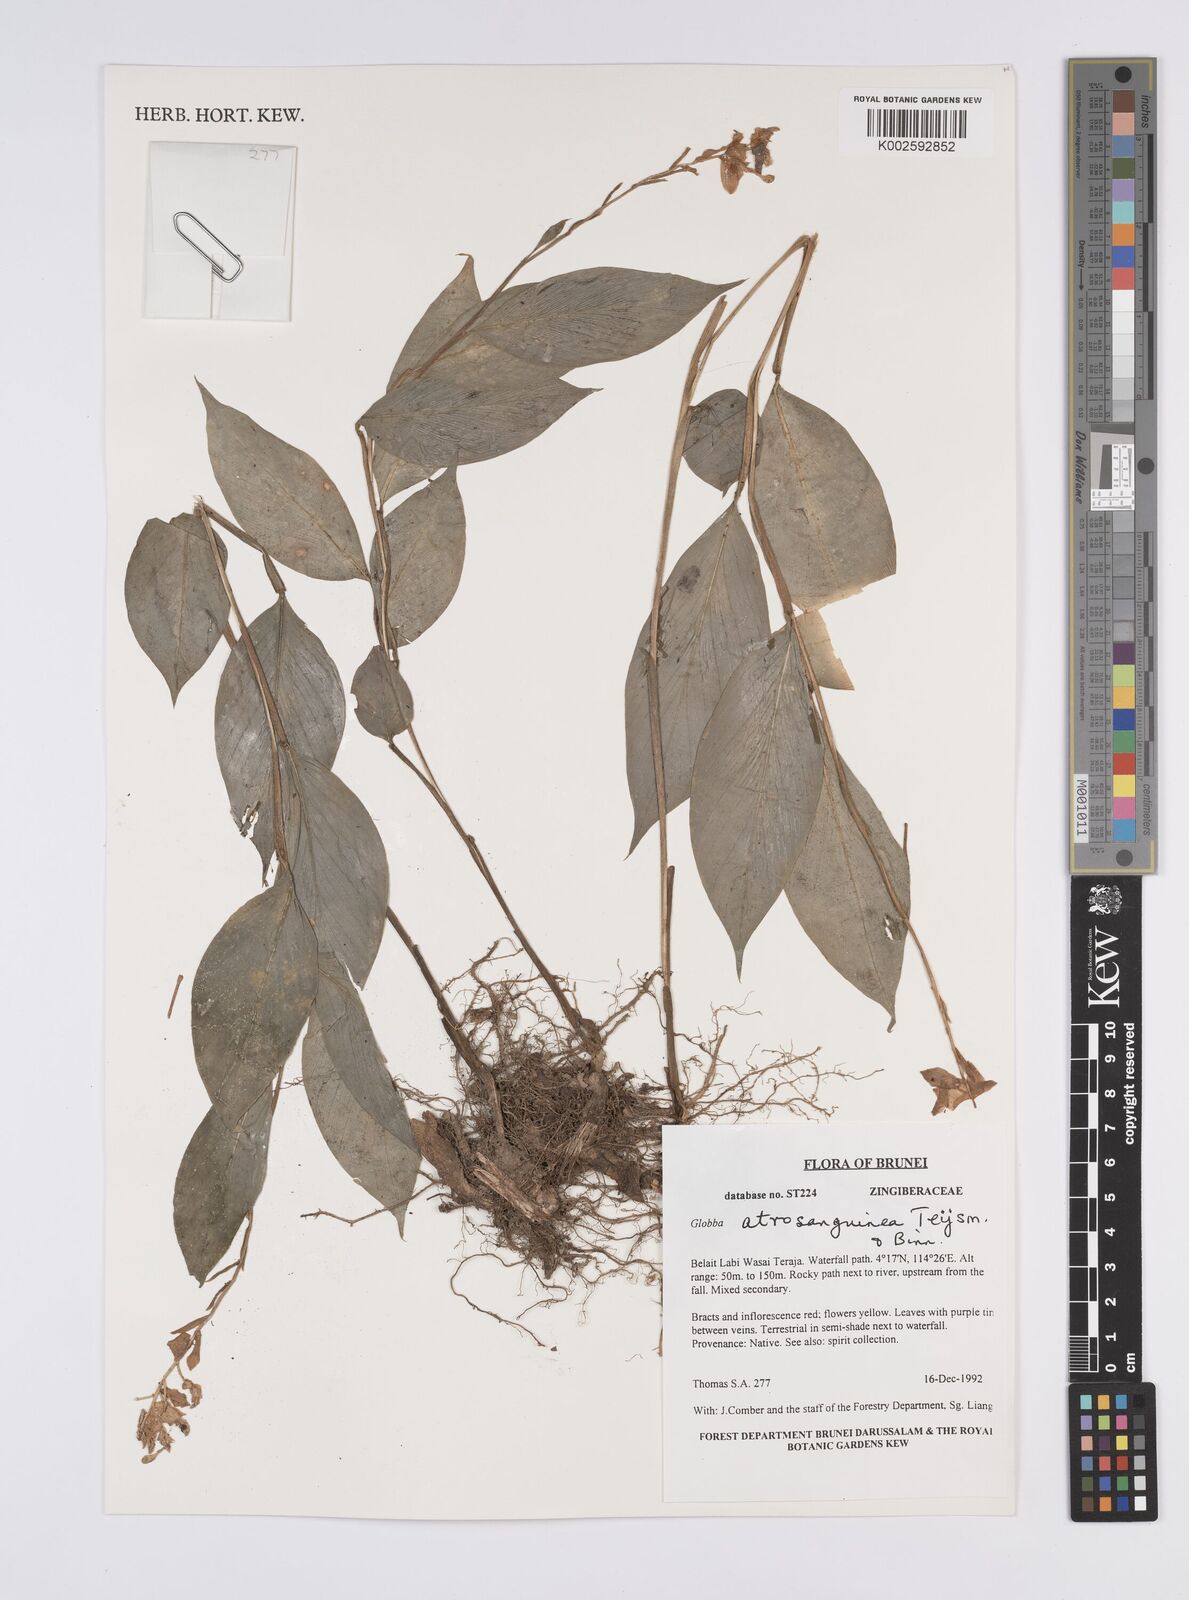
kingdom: Plantae
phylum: Tracheophyta
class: Liliopsida
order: Zingiberales
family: Zingiberaceae
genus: Globba
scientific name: Globba atrosanguinea
